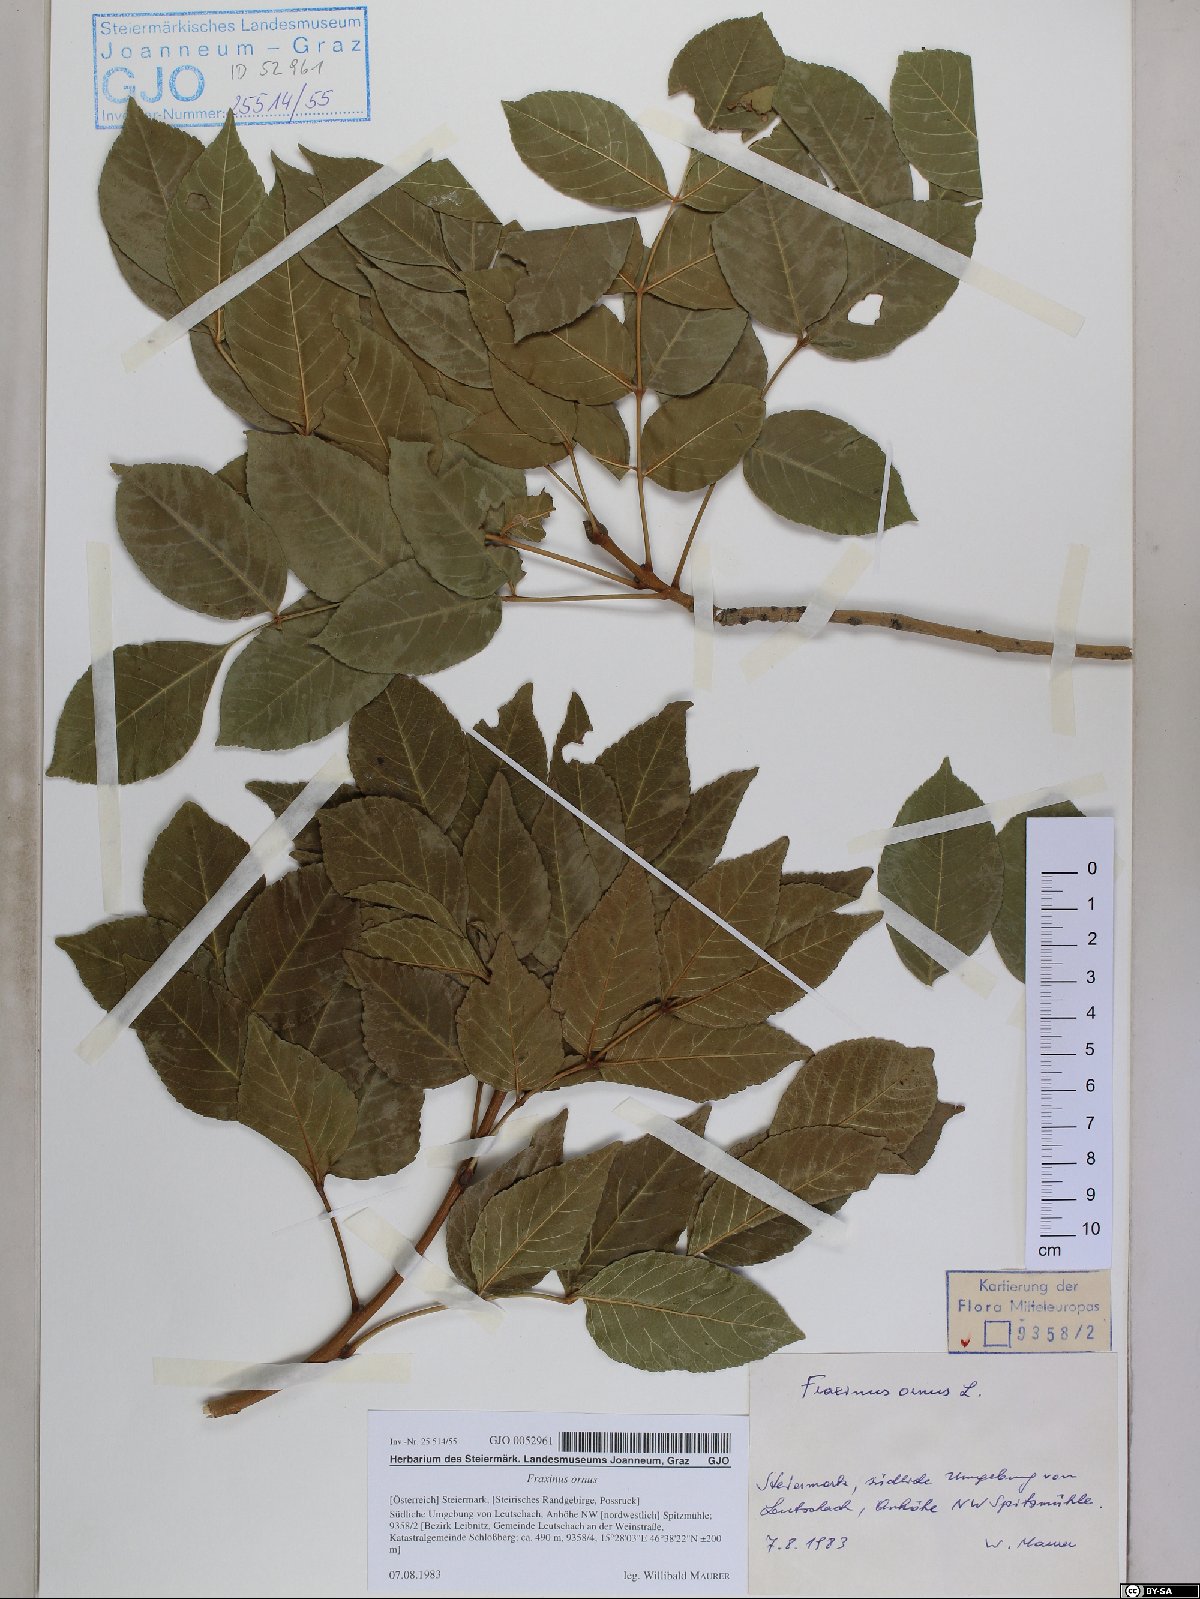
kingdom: Plantae
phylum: Tracheophyta
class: Magnoliopsida
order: Lamiales
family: Oleaceae
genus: Fraxinus
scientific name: Fraxinus ornus
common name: Manna ash
